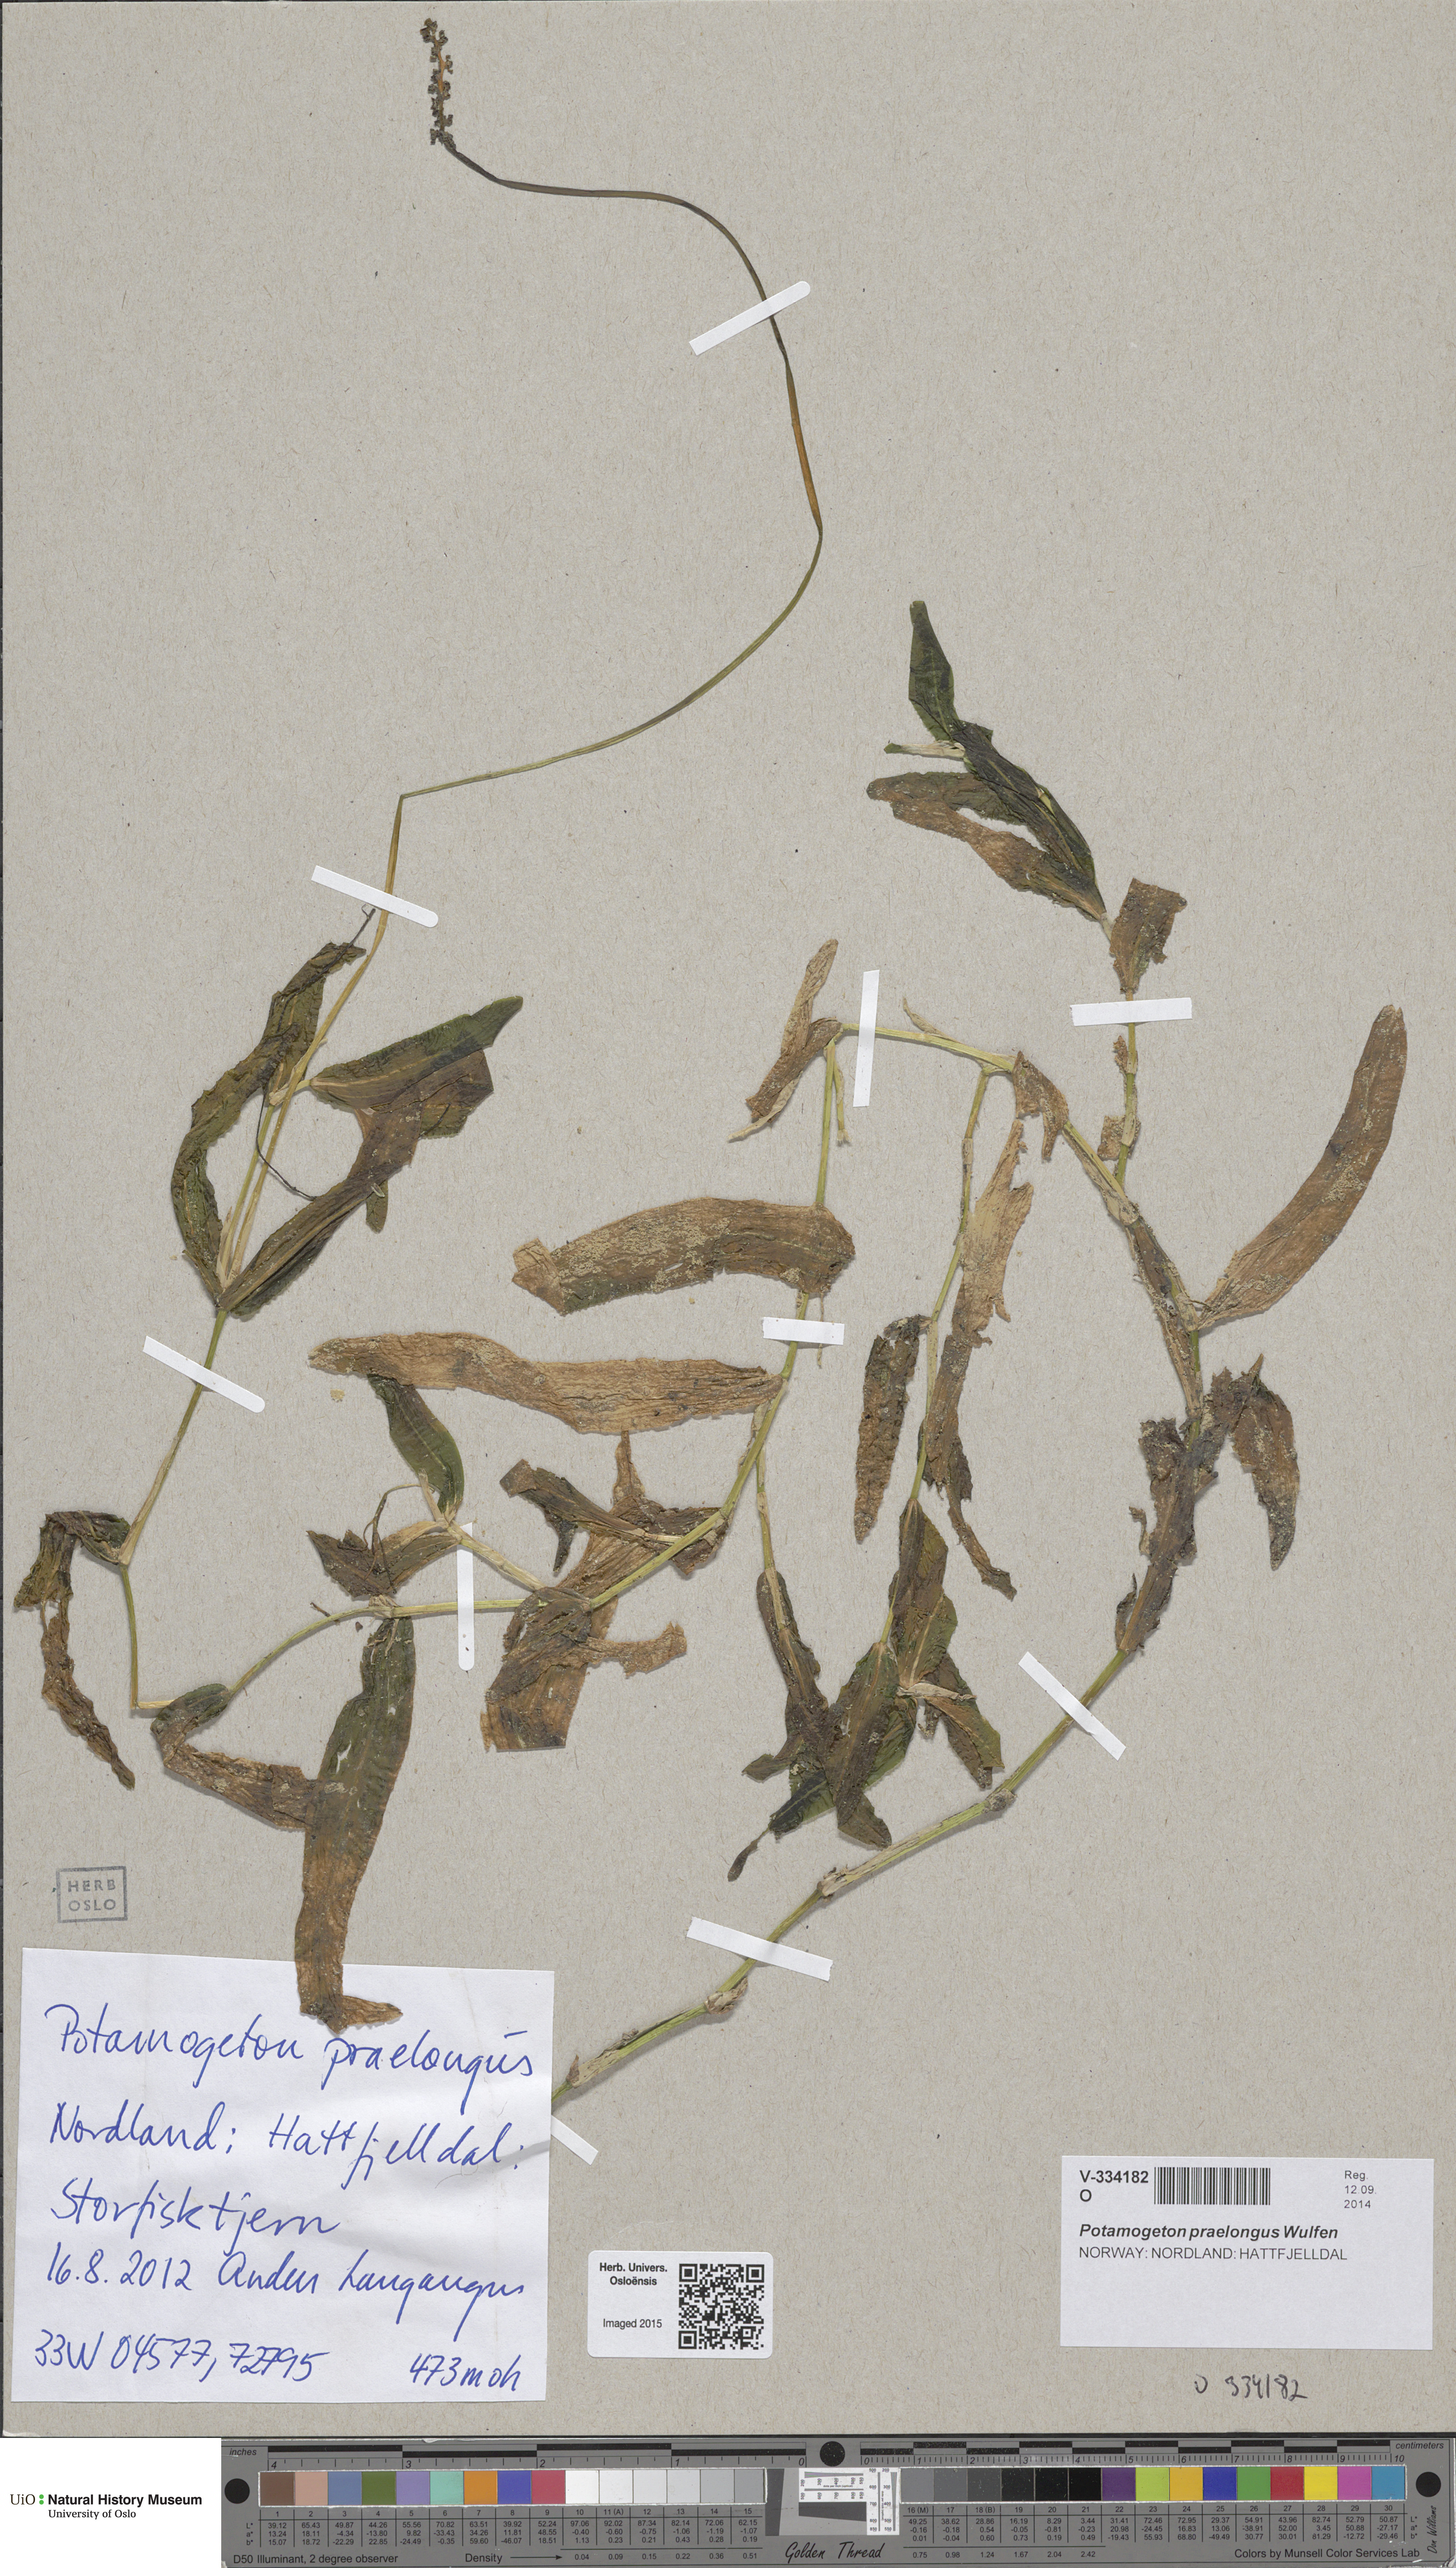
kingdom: Plantae
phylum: Tracheophyta
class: Liliopsida
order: Alismatales
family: Potamogetonaceae
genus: Potamogeton
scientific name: Potamogeton praelongus
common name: Long-stalked pondweed
